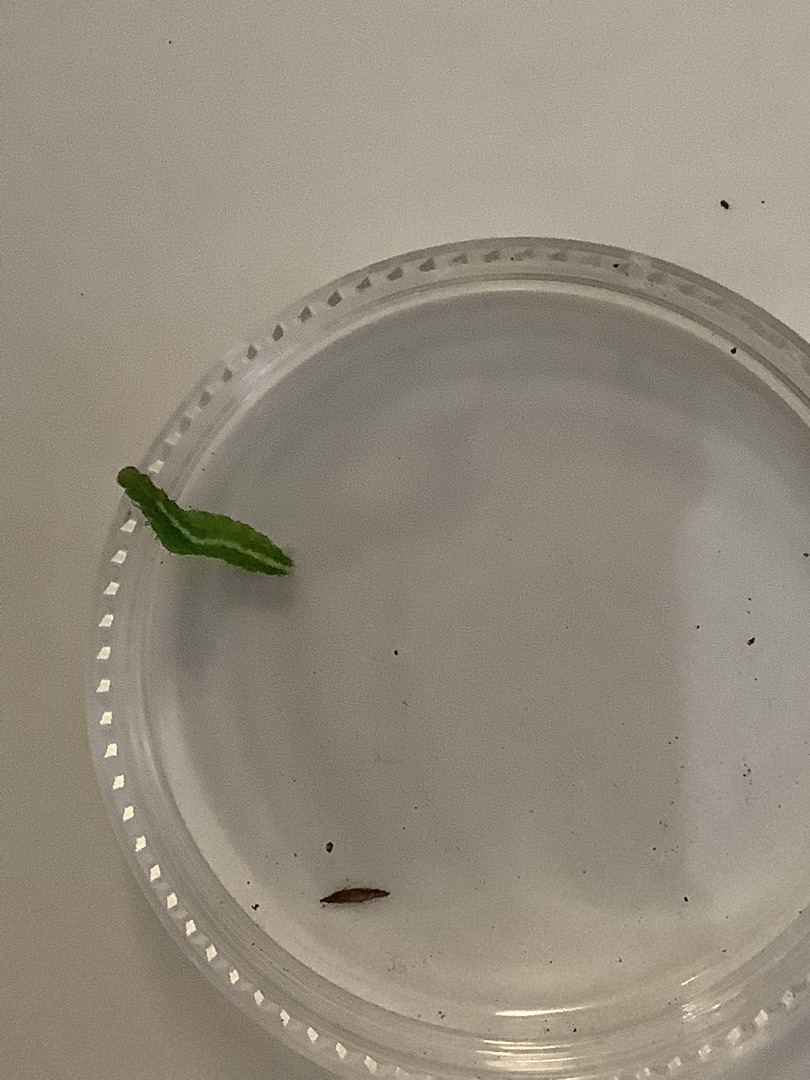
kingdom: Animalia
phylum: Arthropoda
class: Insecta
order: Lepidoptera
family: Ypsolophidae
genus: Ypsolopha
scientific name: Ypsolopha
